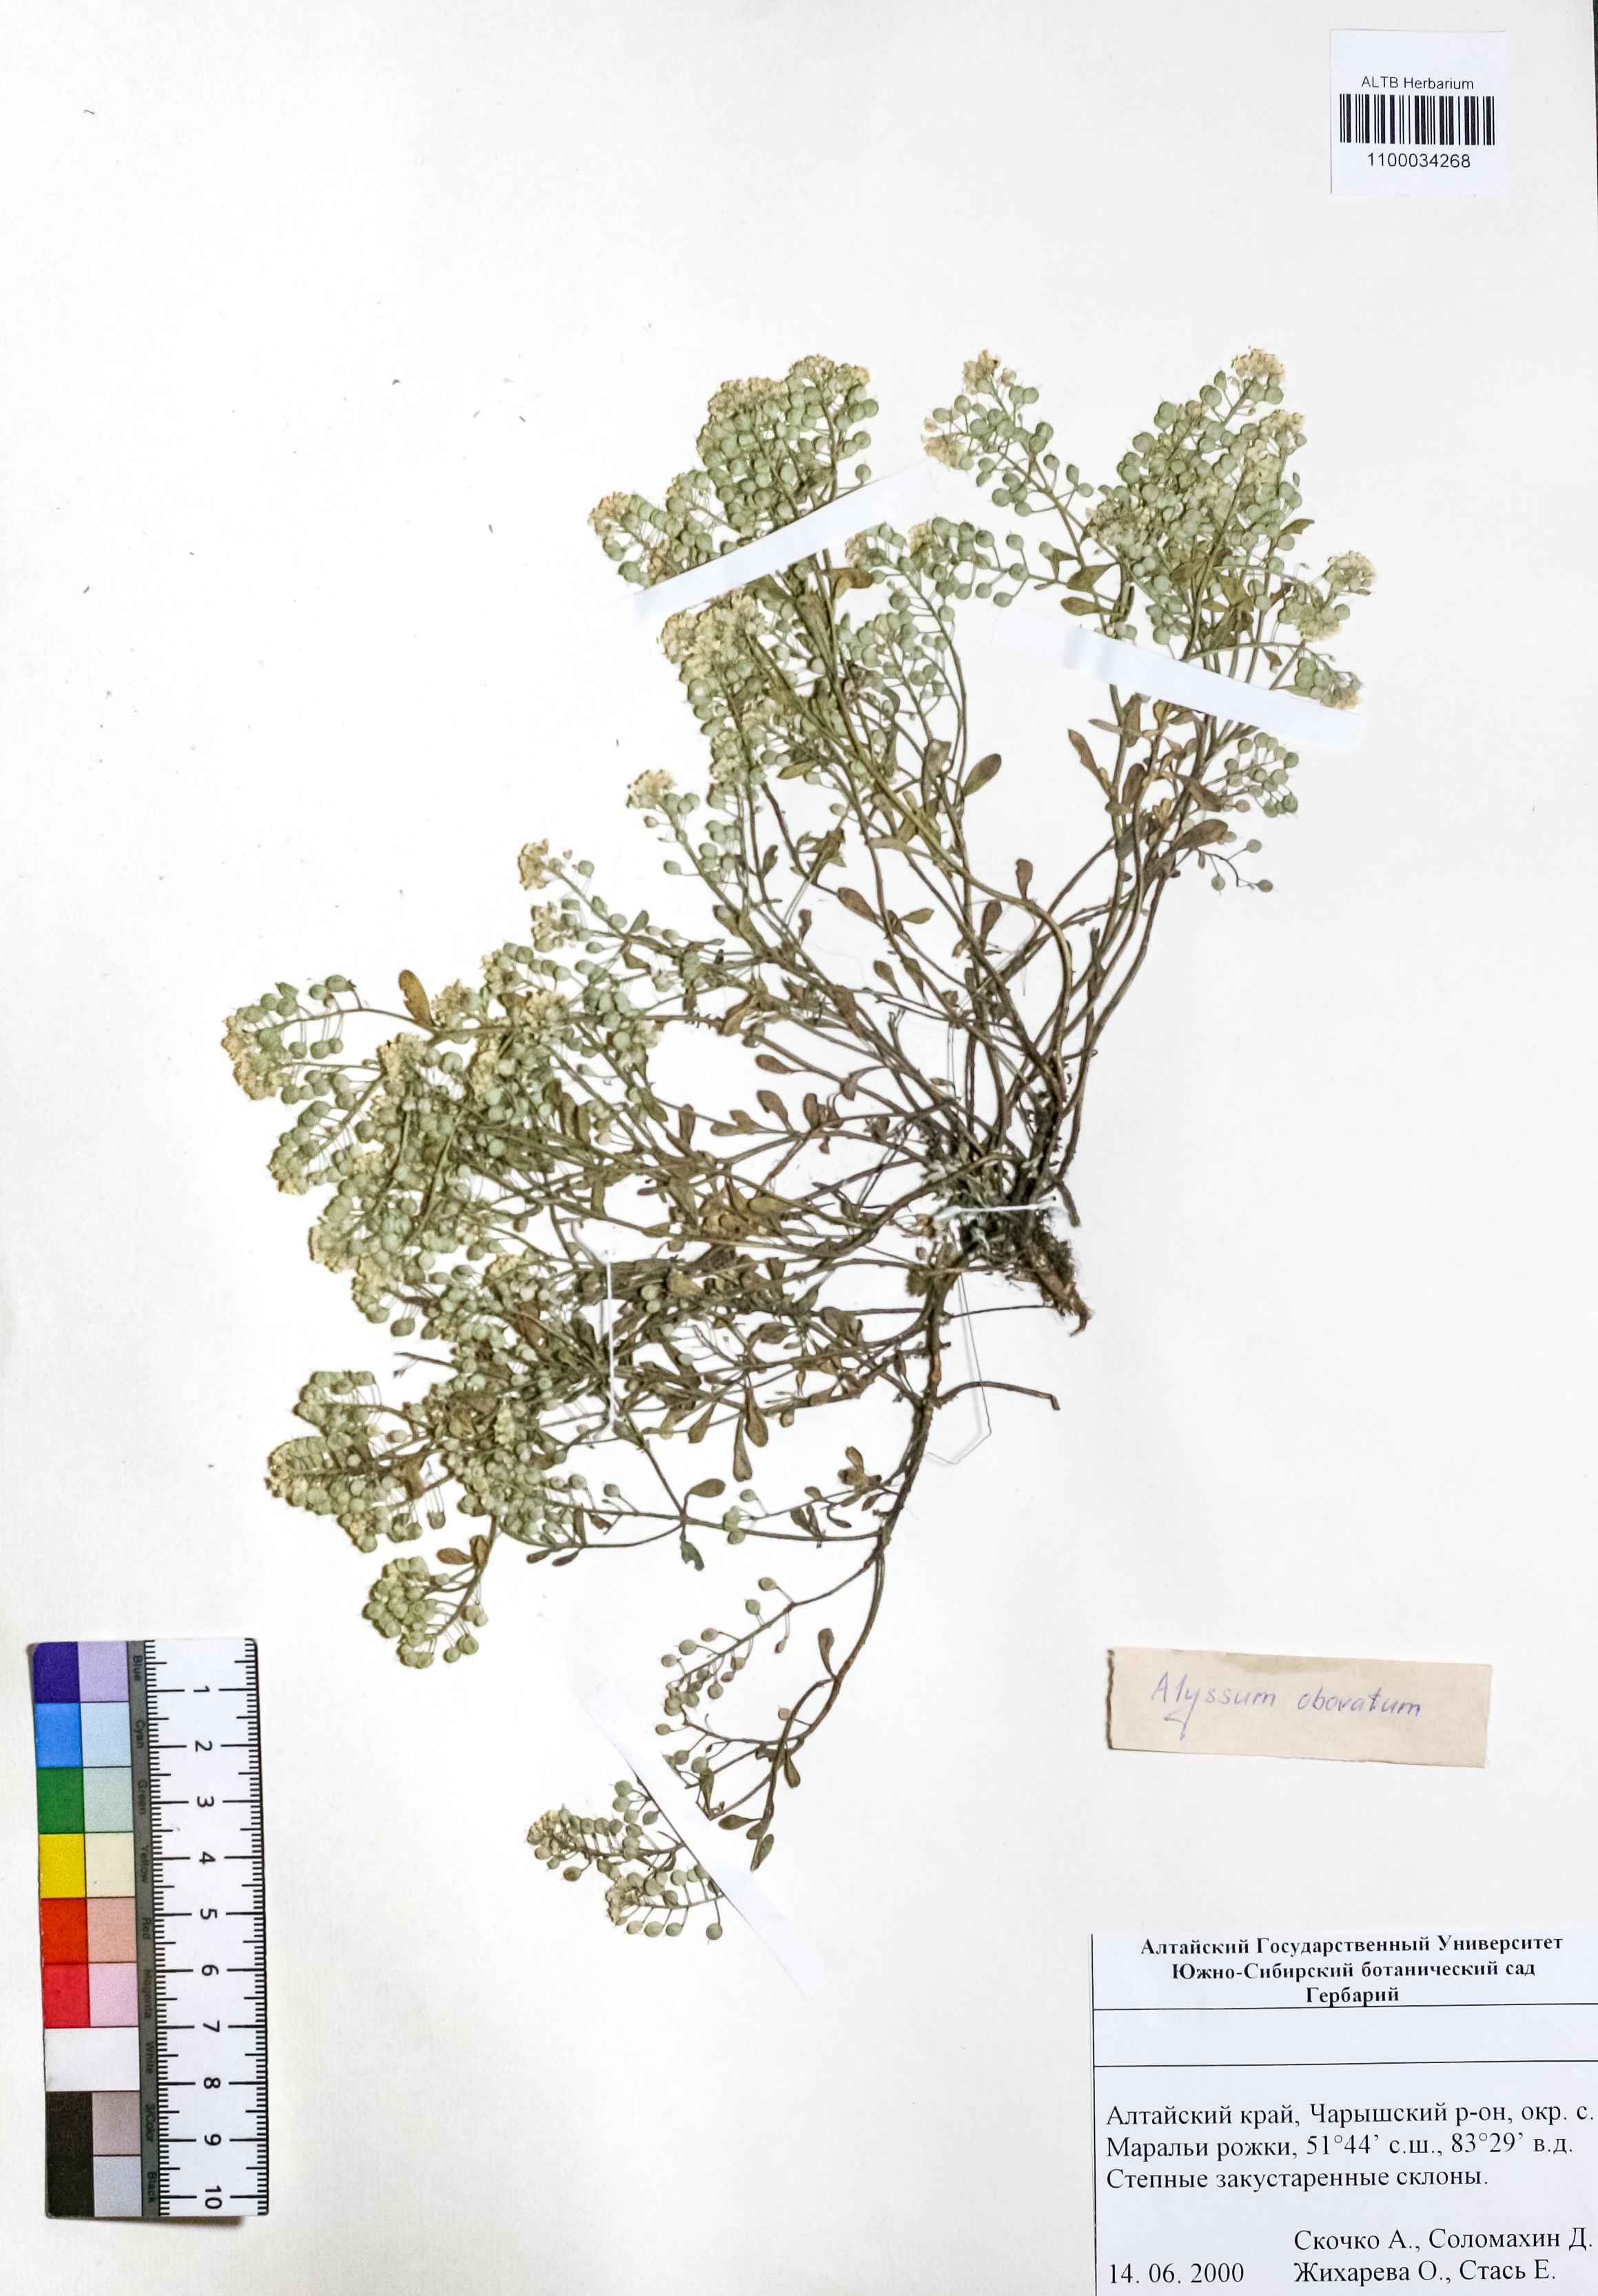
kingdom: Plantae
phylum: Tracheophyta
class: Magnoliopsida
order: Brassicales
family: Brassicaceae
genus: Odontarrhena
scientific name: Odontarrhena obovata
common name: American alyssum
